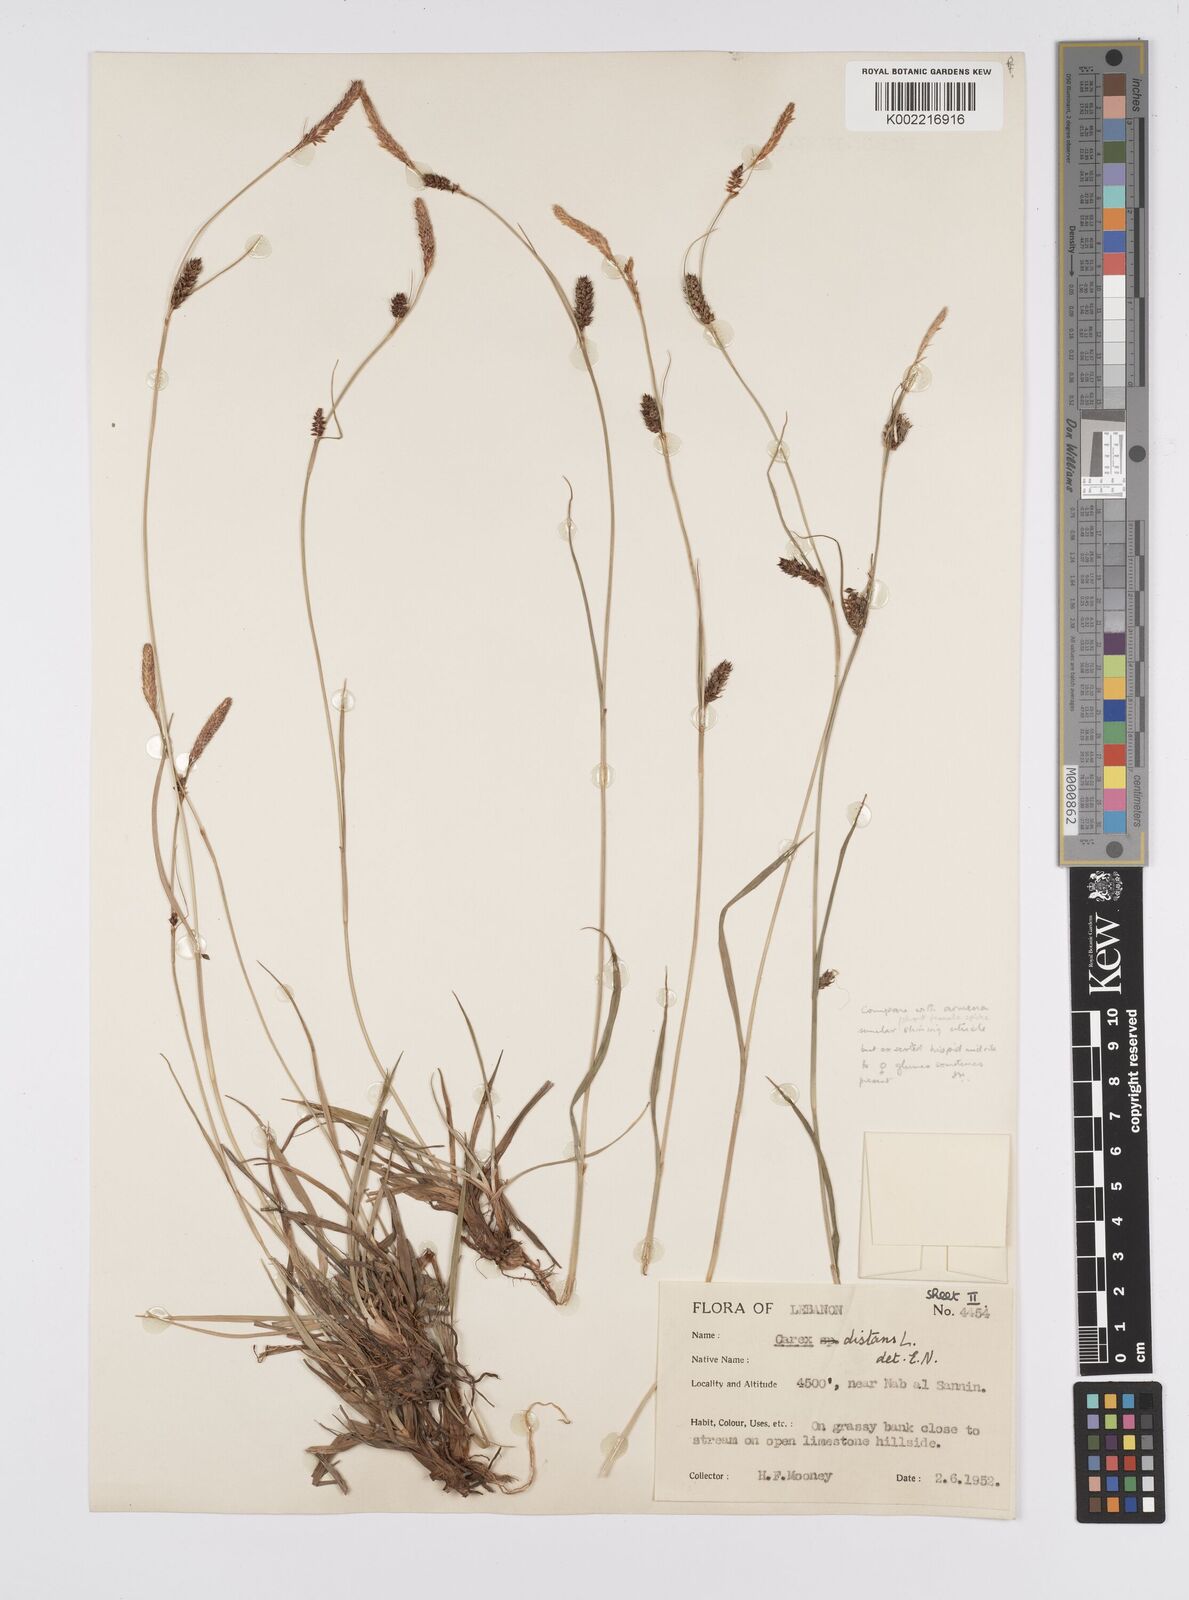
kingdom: Plantae
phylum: Tracheophyta
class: Liliopsida
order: Poales
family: Cyperaceae
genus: Carex
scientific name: Carex distans
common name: Distant sedge
